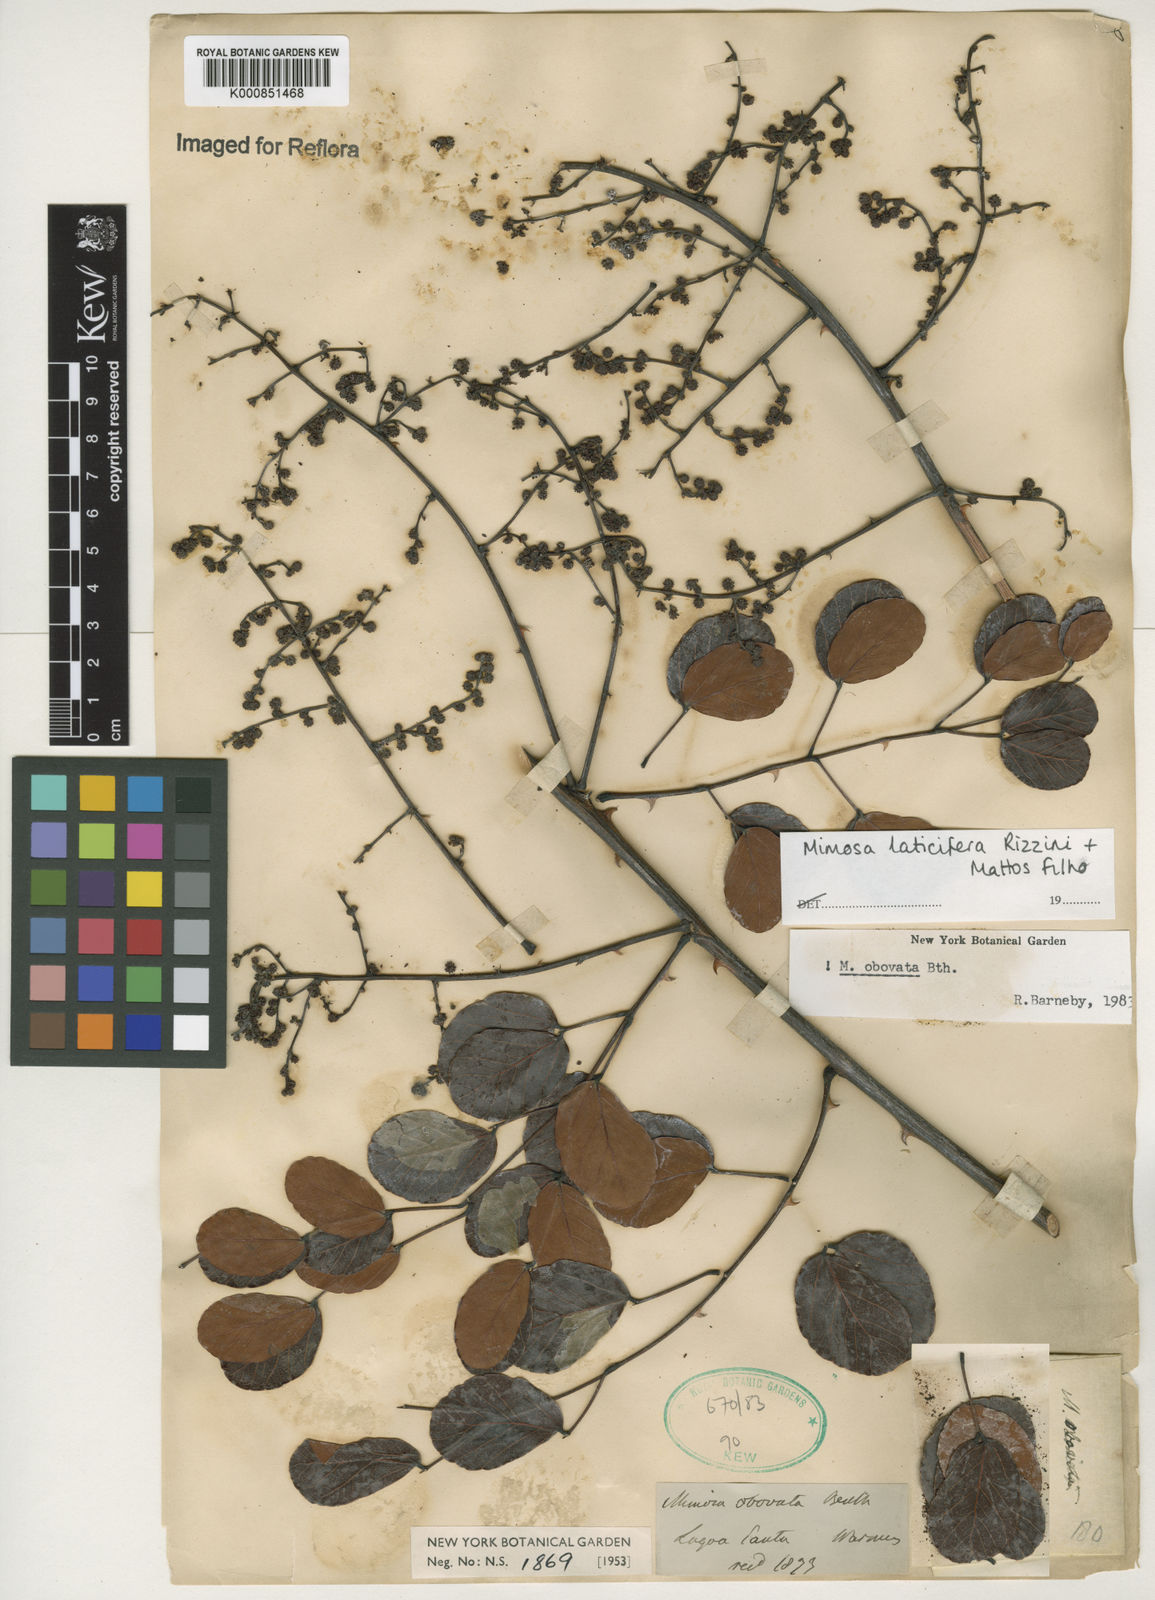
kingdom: Plantae
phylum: Tracheophyta
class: Magnoliopsida
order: Fabales
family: Fabaceae
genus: Mimosa
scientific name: Mimosa laticifera
